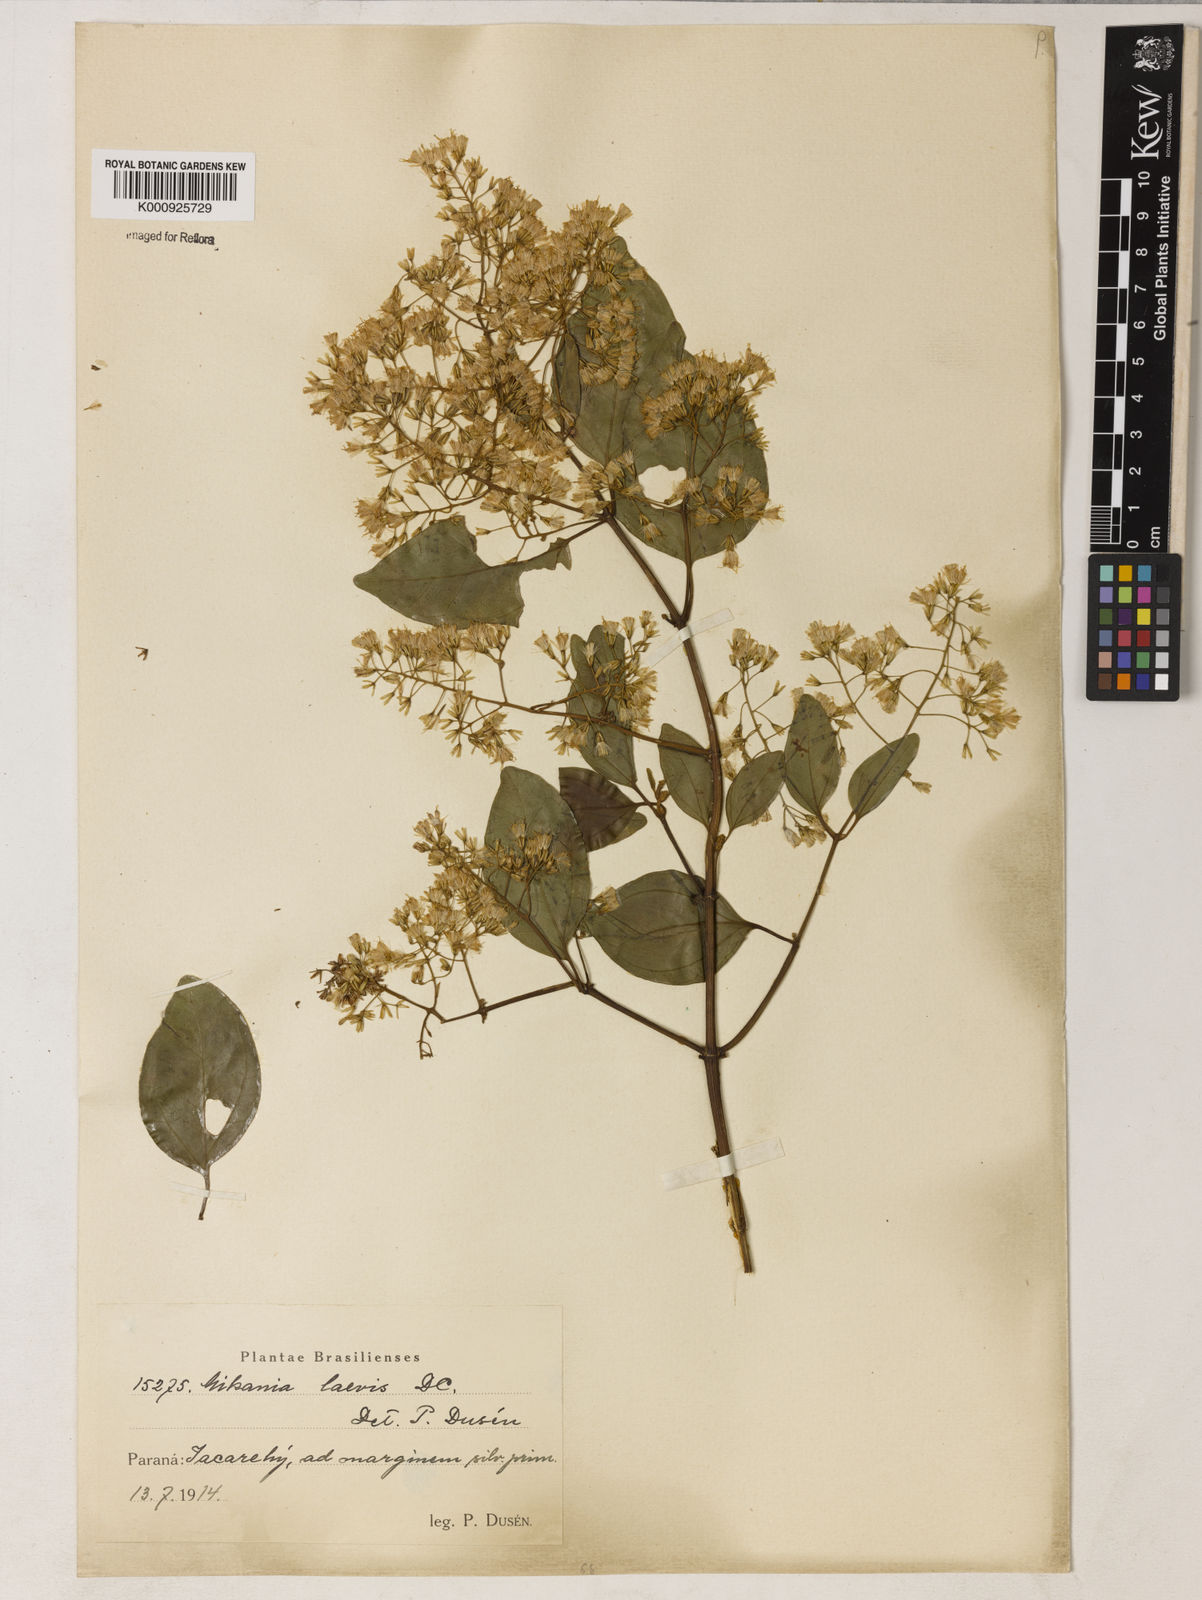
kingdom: Plantae
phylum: Tracheophyta
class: Magnoliopsida
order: Asterales
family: Asteraceae
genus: Mikania
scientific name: Mikania trinervis
